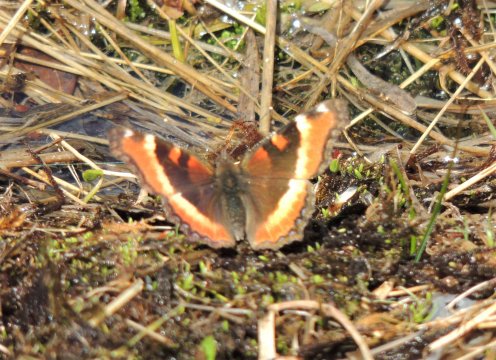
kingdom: Animalia
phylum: Arthropoda
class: Insecta
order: Lepidoptera
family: Nymphalidae
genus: Aglais
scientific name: Aglais milberti
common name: Milbert's Tortoiseshell
